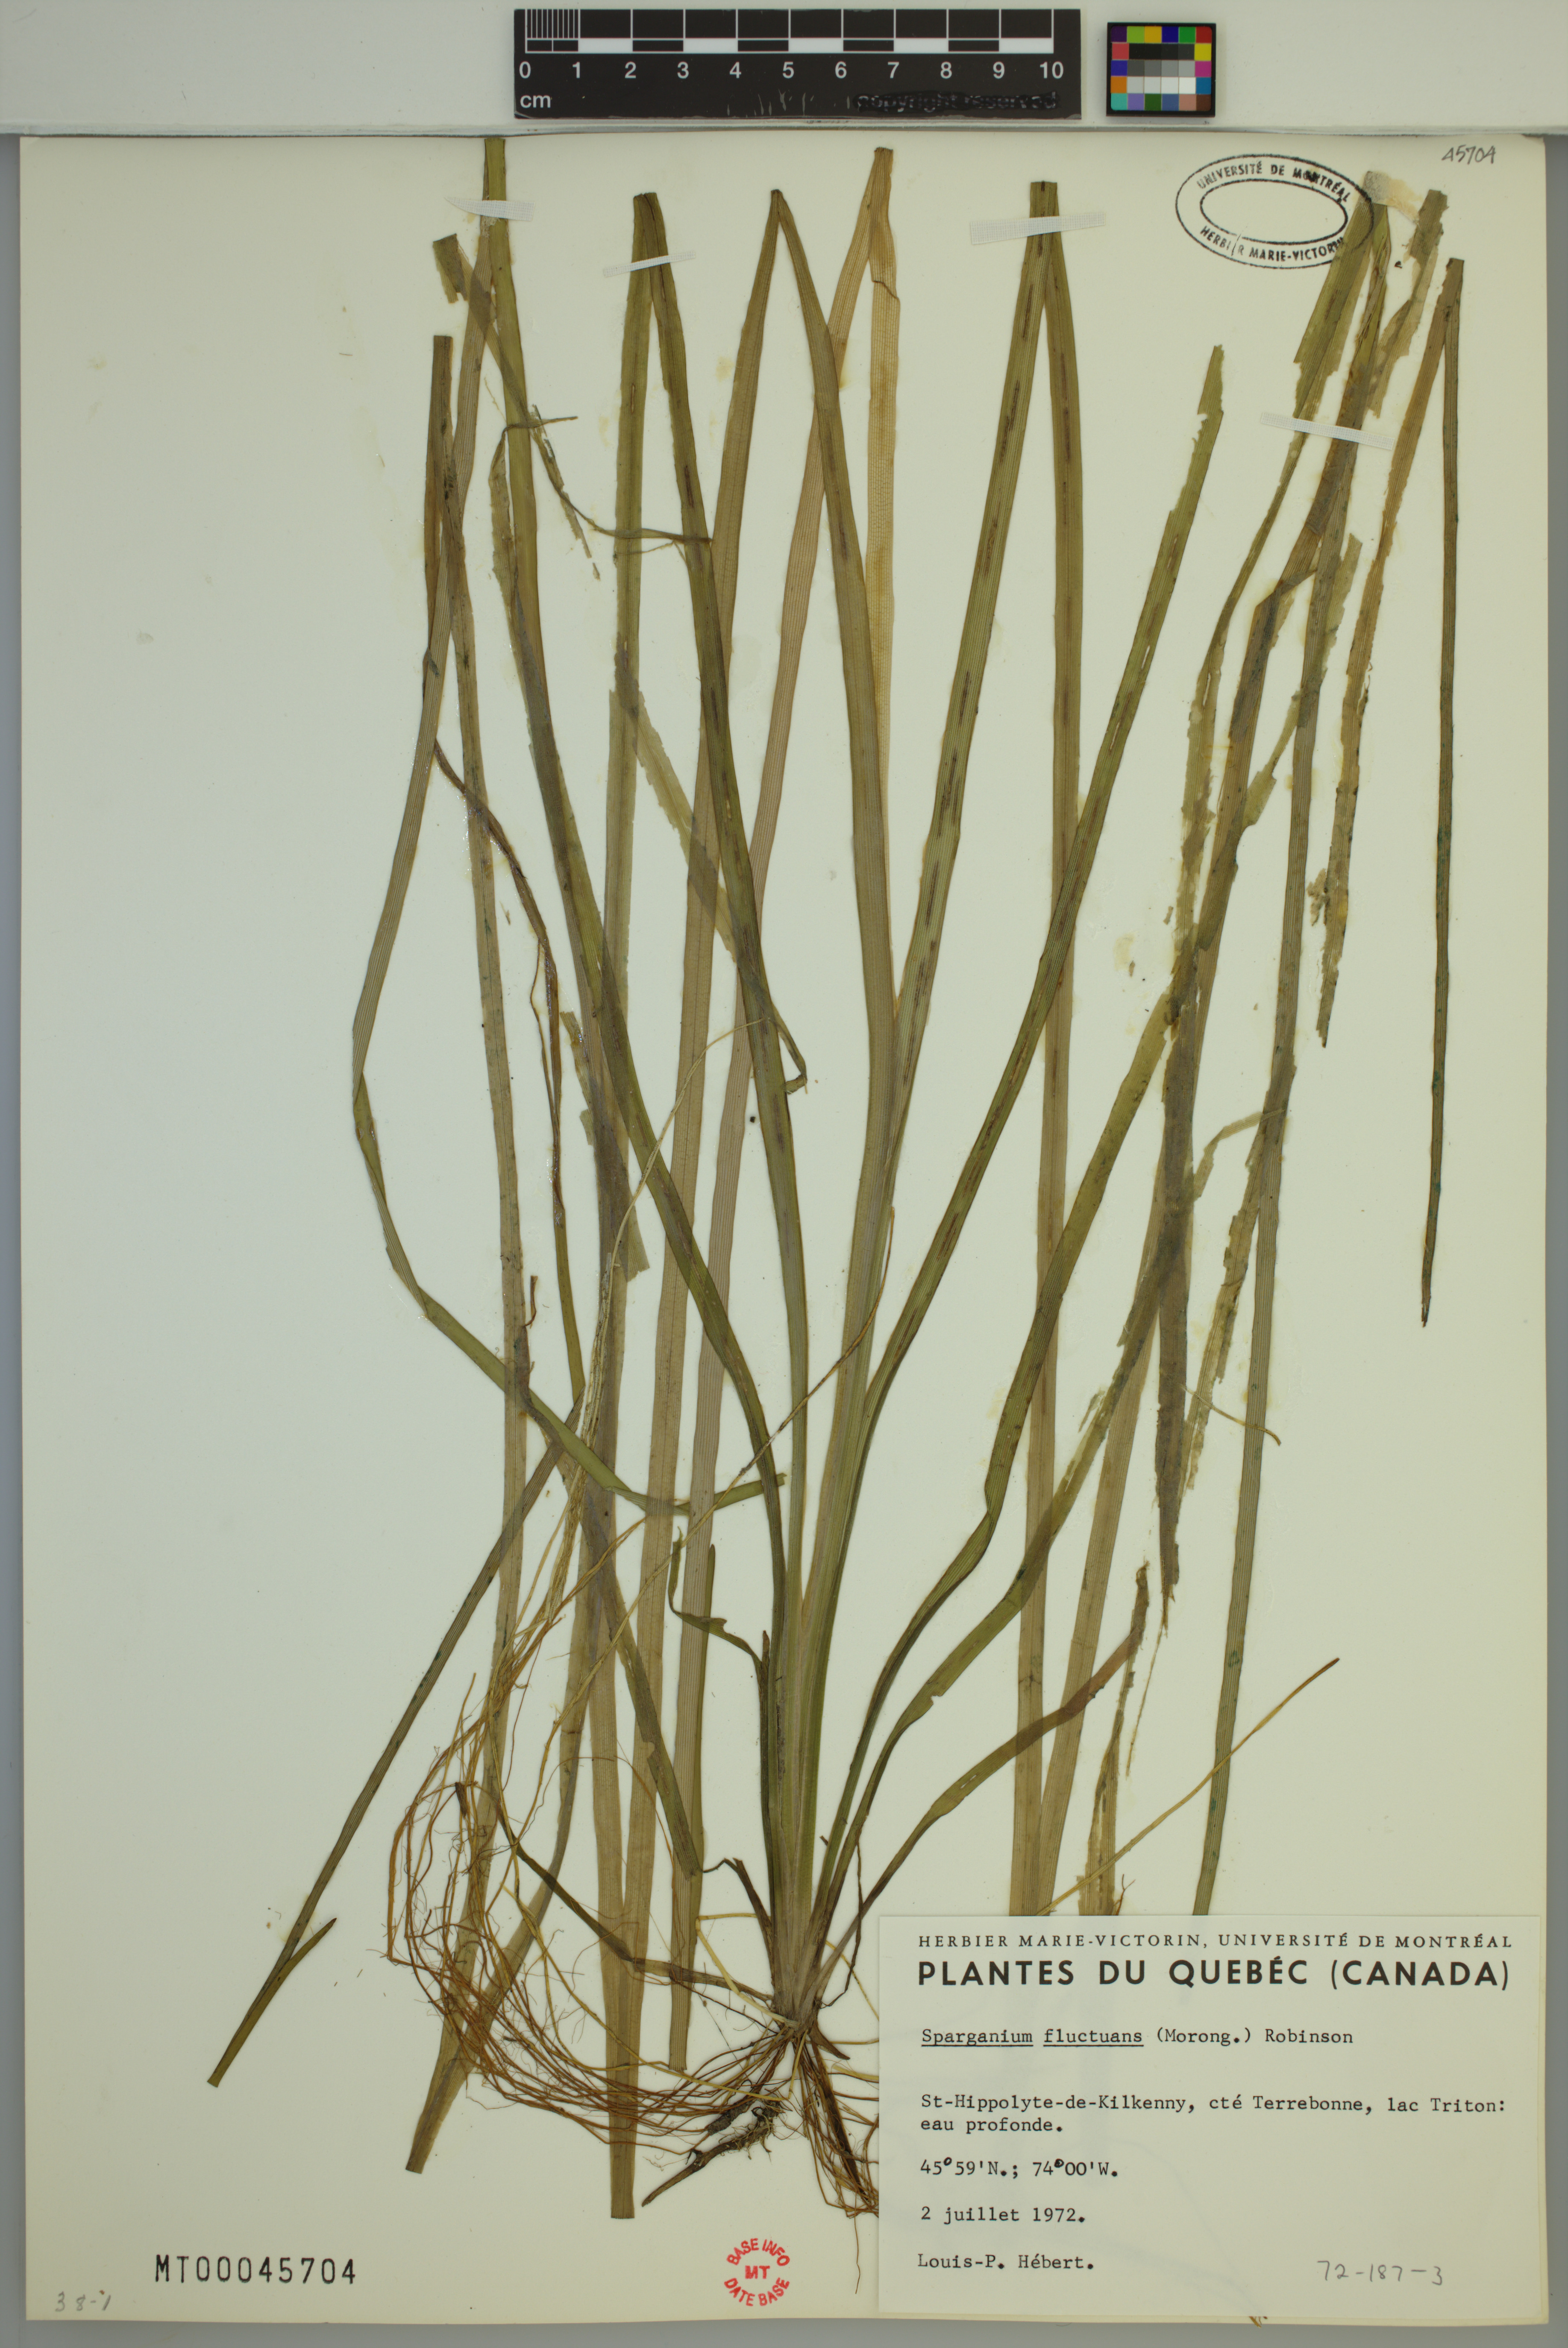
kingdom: Plantae
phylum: Tracheophyta
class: Liliopsida
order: Poales
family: Typhaceae
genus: Sparganium
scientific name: Sparganium fluctuans
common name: Floating burreed
